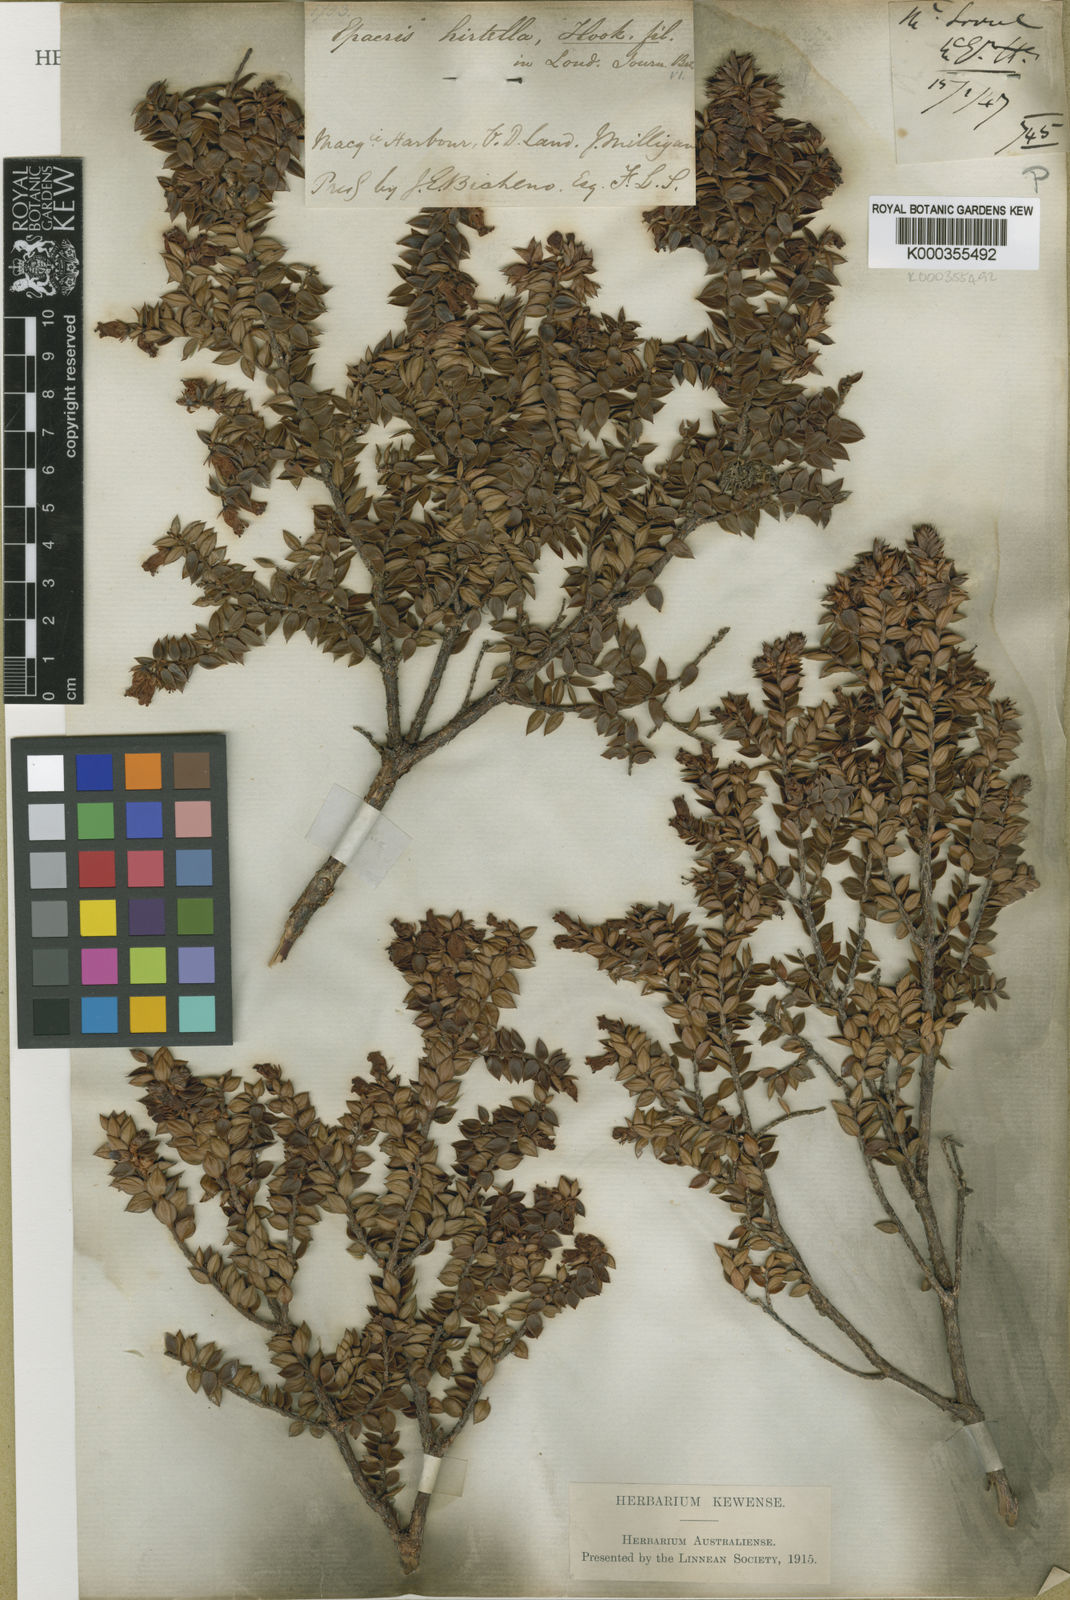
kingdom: Plantae
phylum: Tracheophyta
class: Magnoliopsida
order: Ericales
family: Ericaceae
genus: Archeria
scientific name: Archeria hirtella
